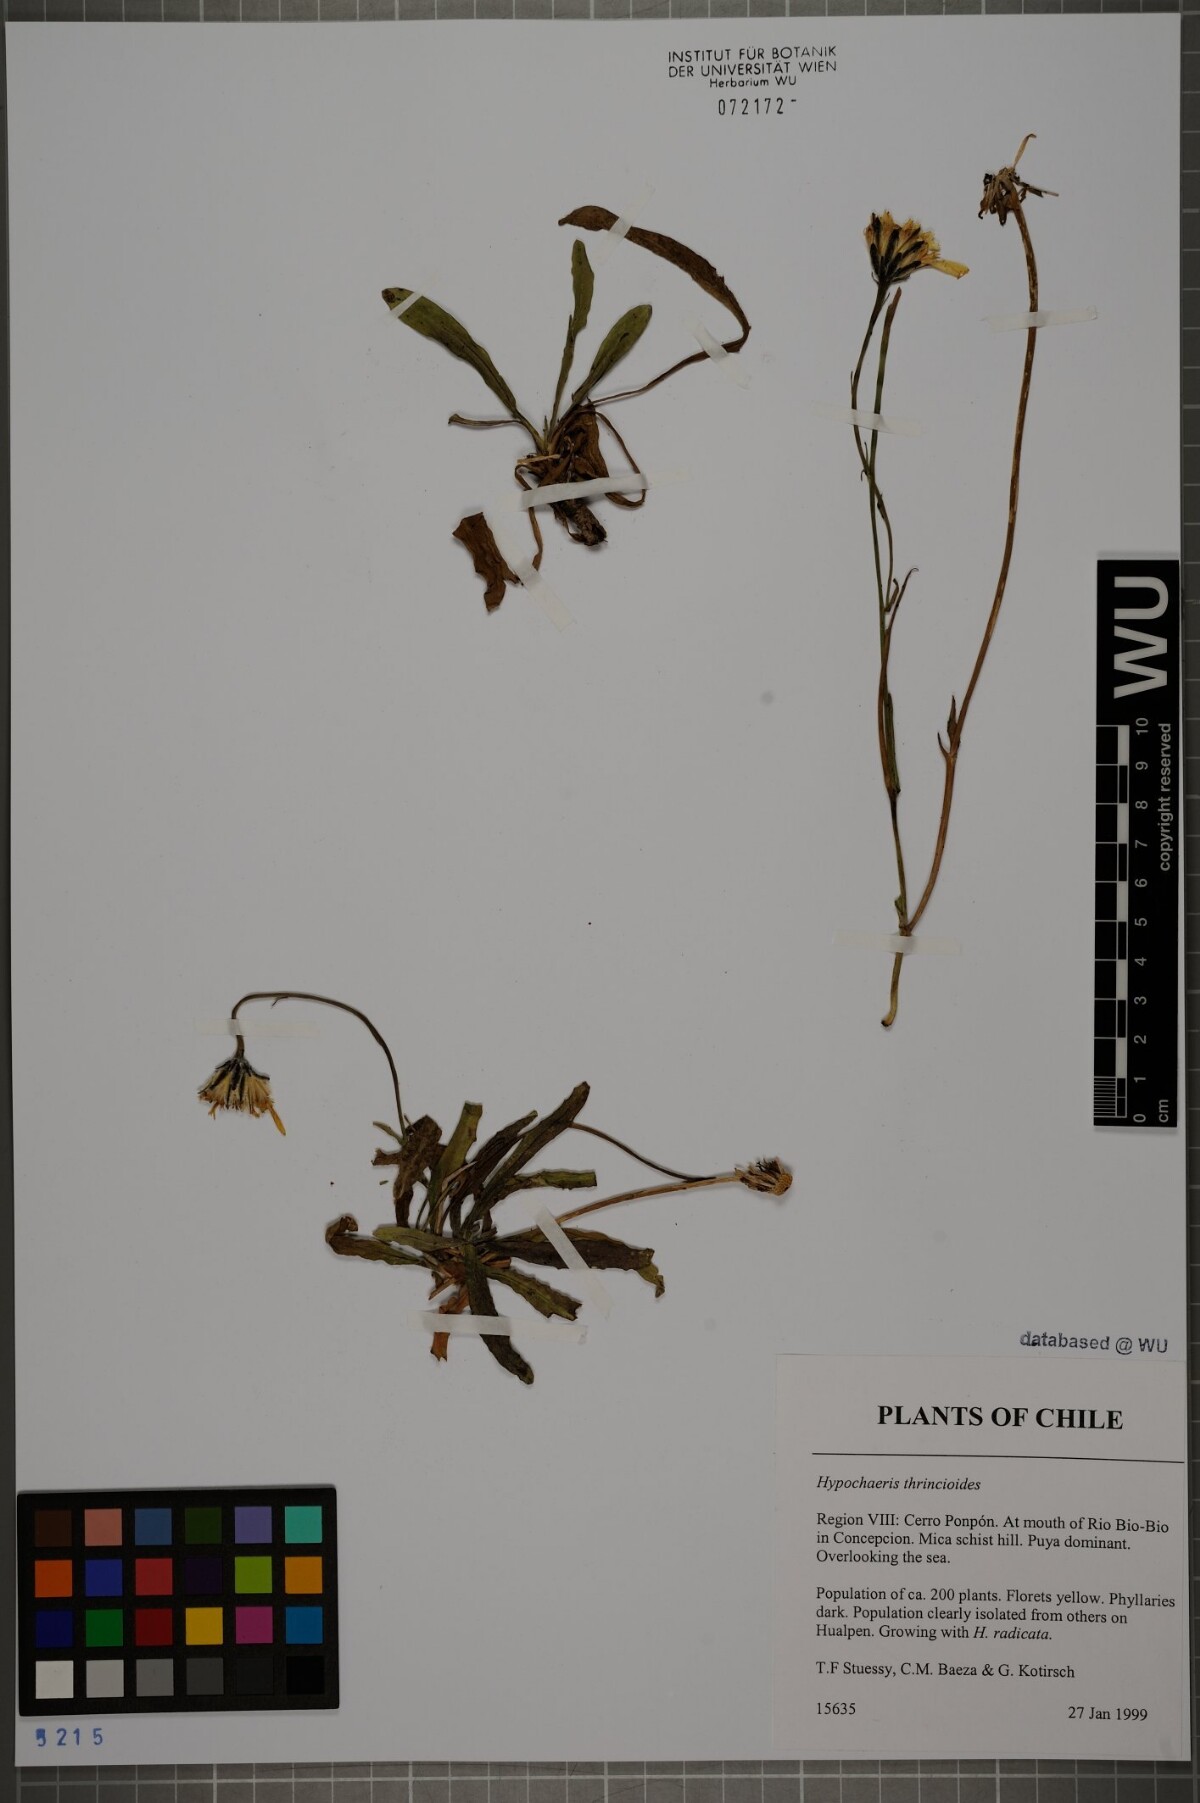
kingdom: Plantae
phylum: Tracheophyta
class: Magnoliopsida
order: Asterales
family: Asteraceae
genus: Hypochaeris
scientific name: Hypochaeris apargioides
